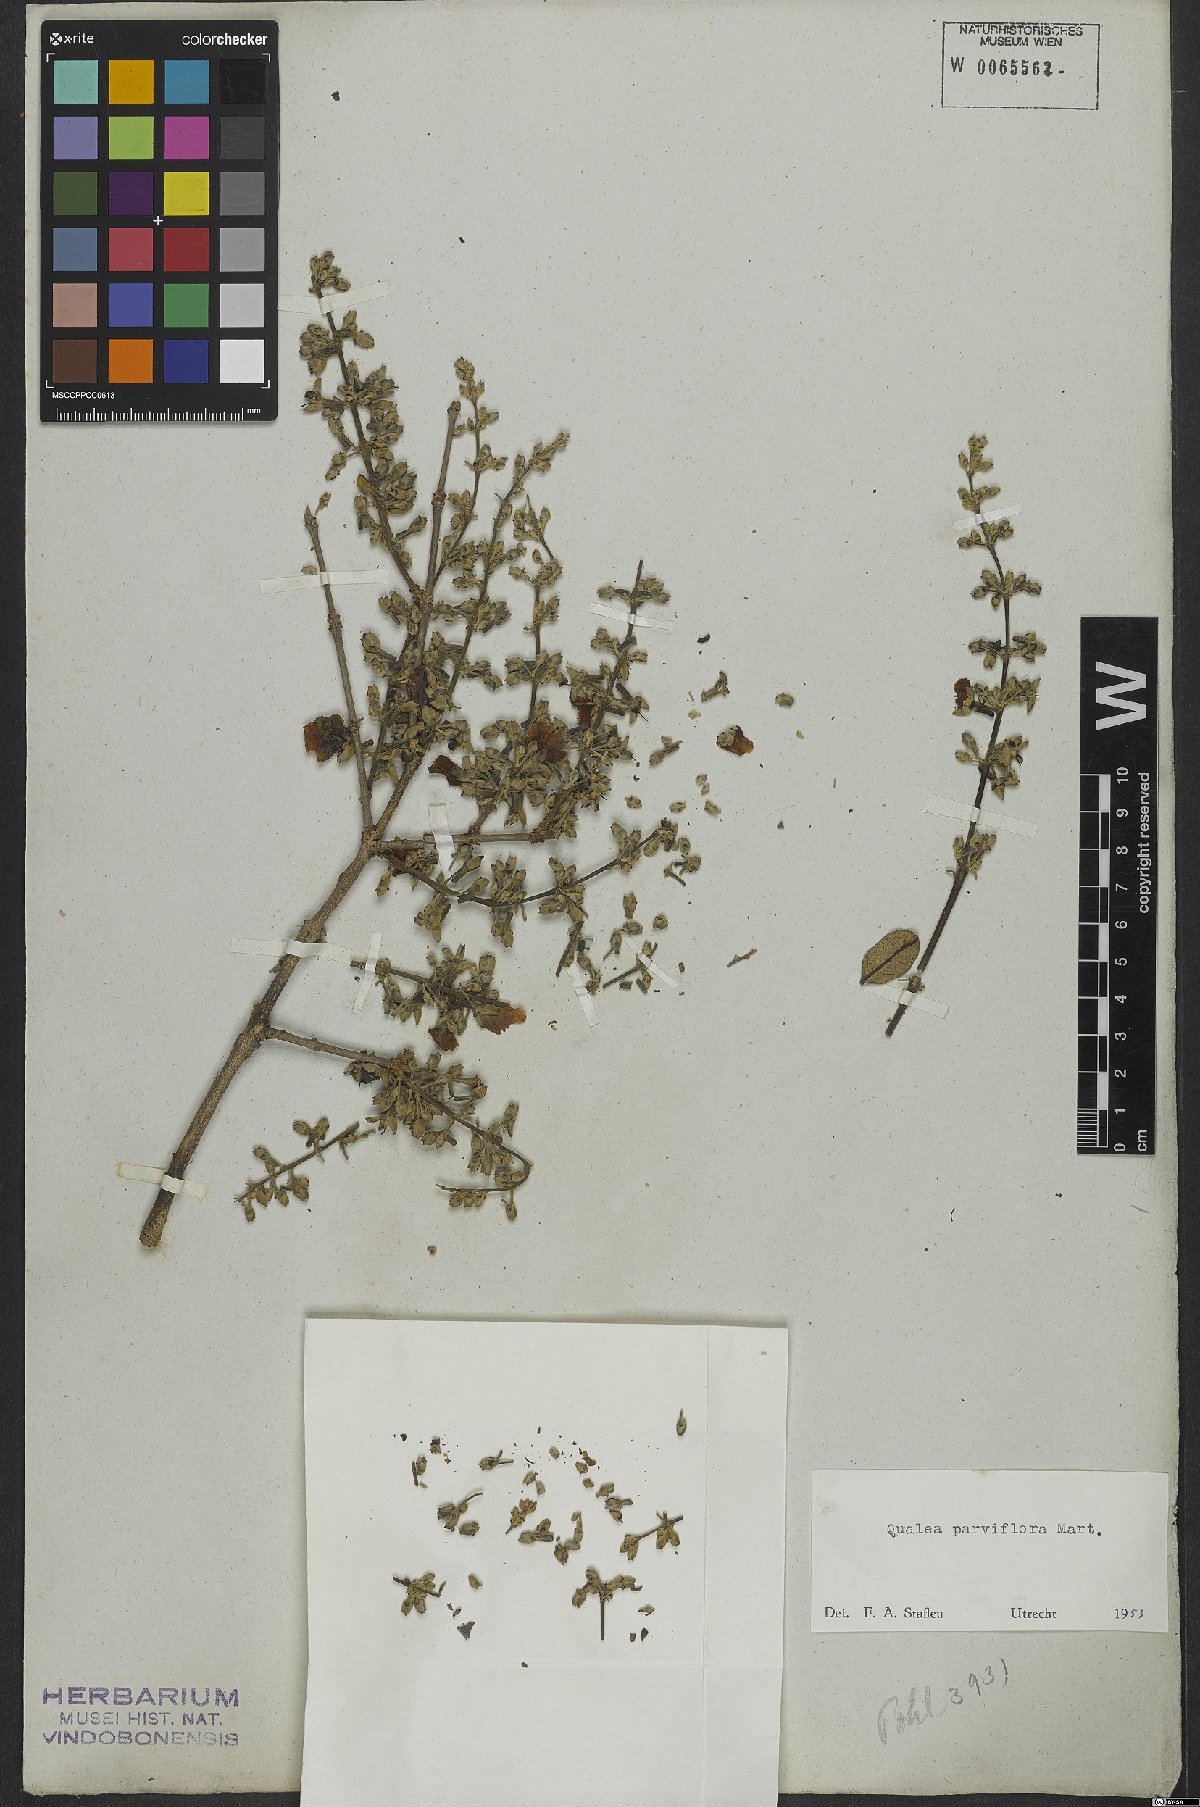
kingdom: Plantae
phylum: Tracheophyta
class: Magnoliopsida
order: Myrtales
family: Vochysiaceae
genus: Qualea
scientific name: Qualea parviflora
